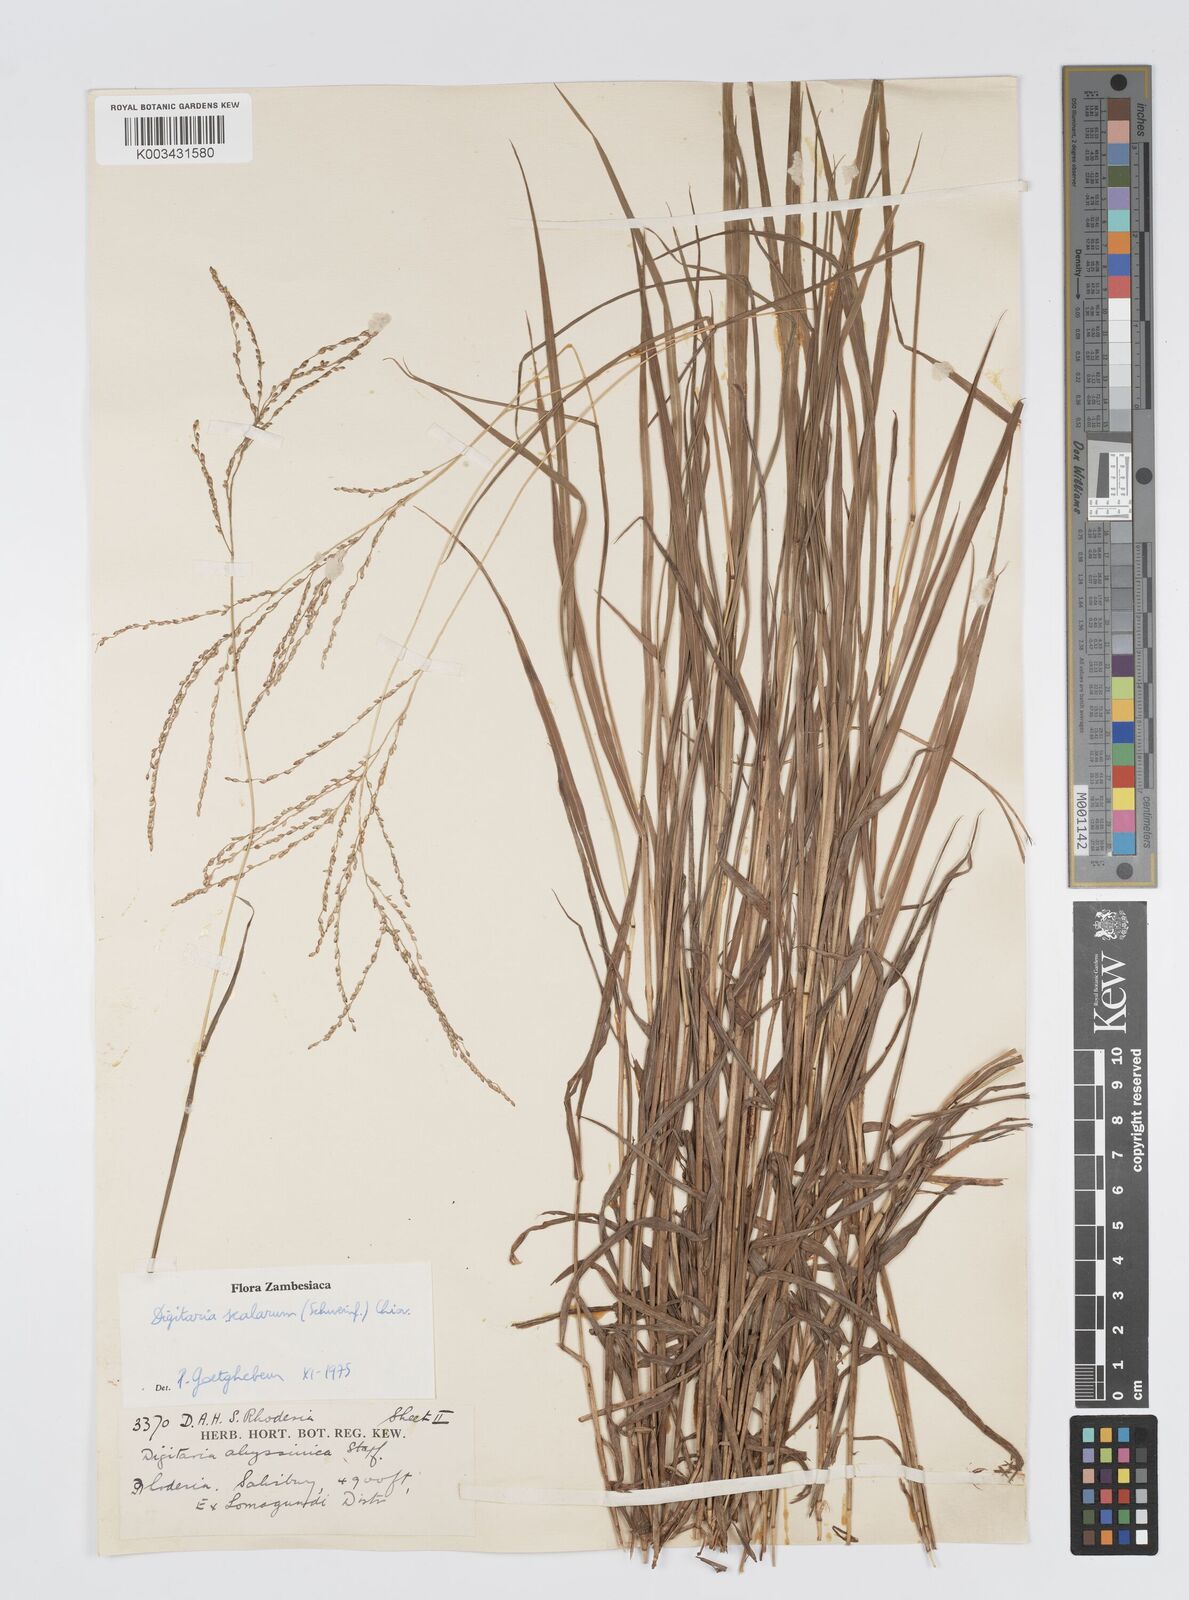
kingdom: Plantae
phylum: Tracheophyta
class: Liliopsida
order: Poales
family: Poaceae
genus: Digitaria
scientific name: Digitaria abyssinica
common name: African couchgrass
